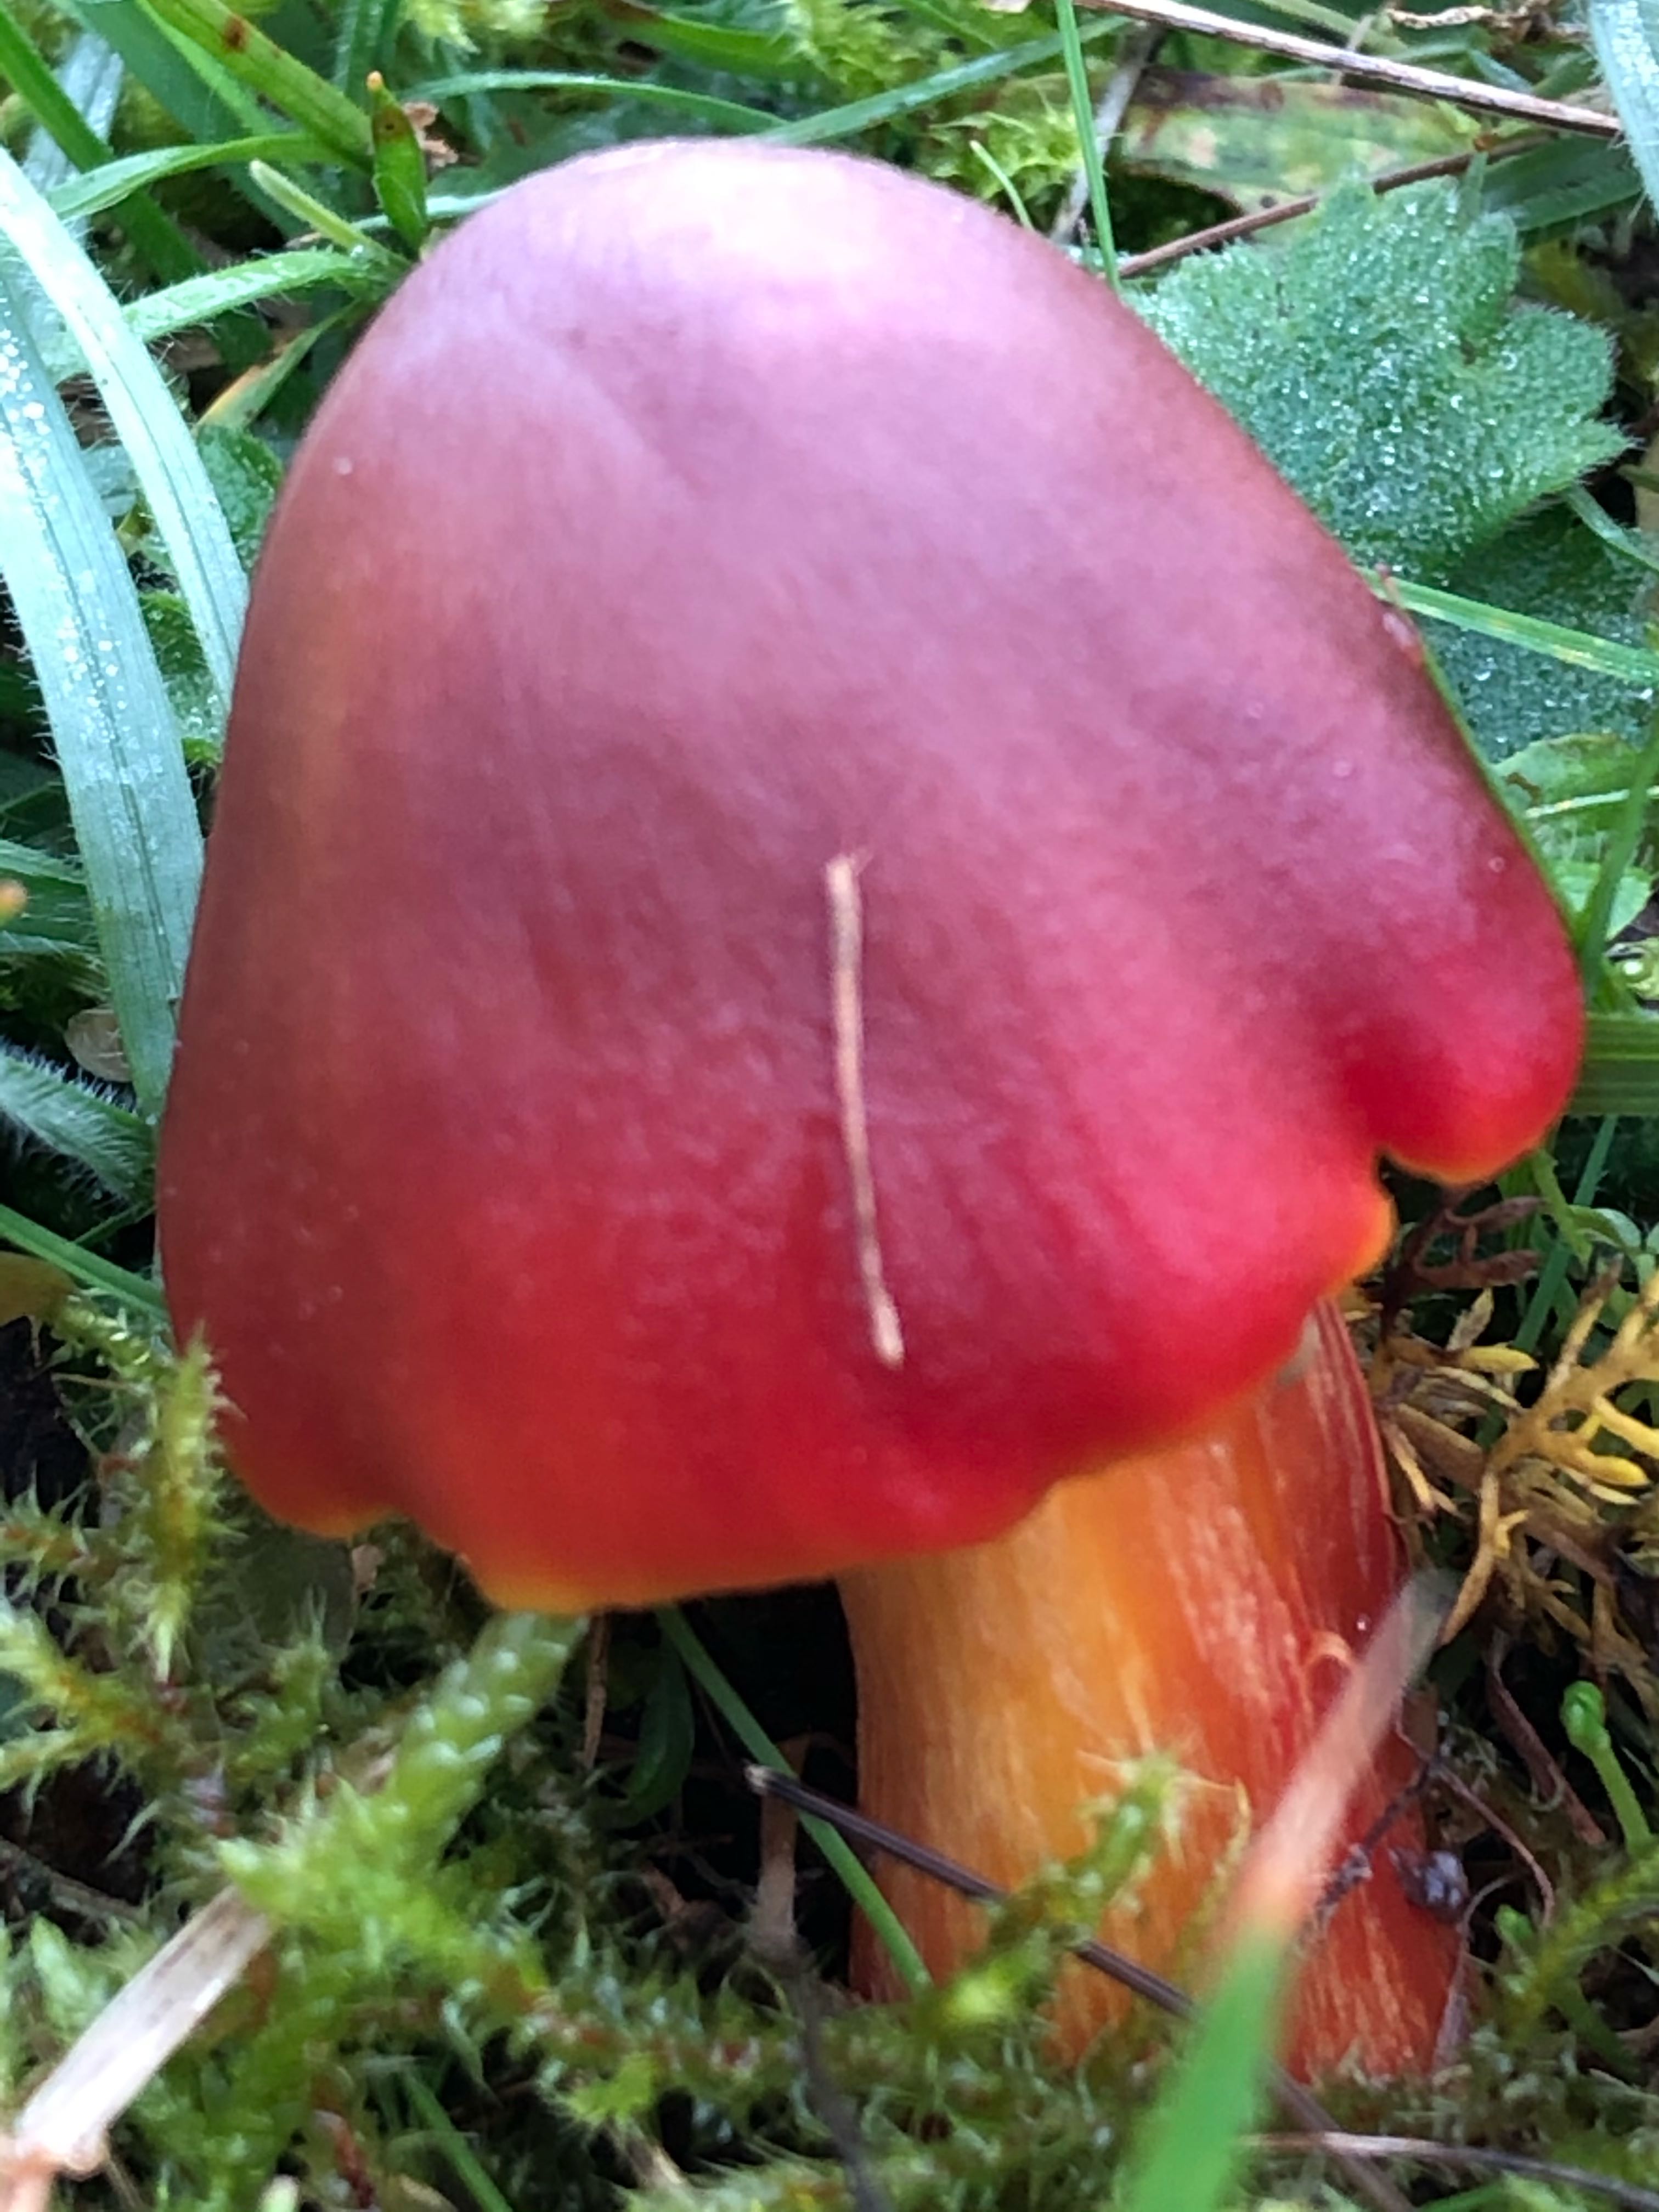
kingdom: Fungi
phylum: Basidiomycota
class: Agaricomycetes
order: Agaricales
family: Hygrophoraceae
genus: Hygrocybe
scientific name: Hygrocybe punicea
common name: skarlagen-vokshat
